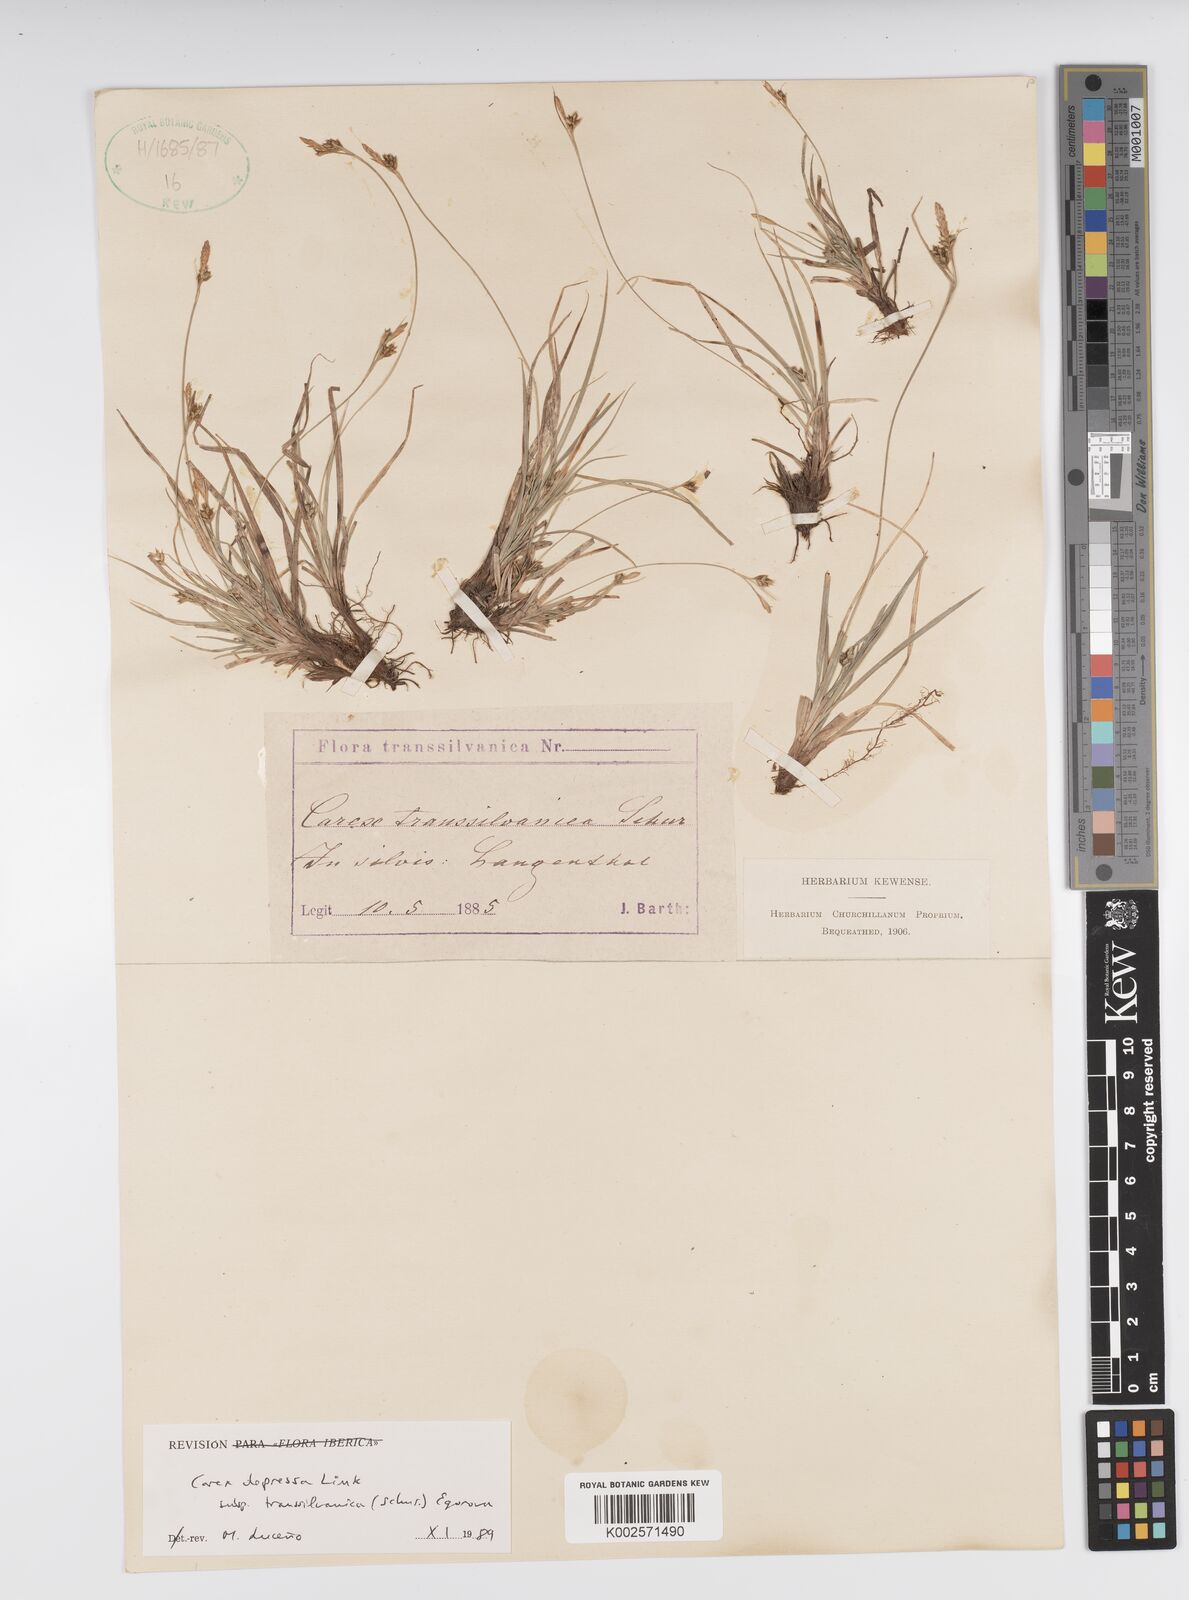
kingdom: Plantae
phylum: Tracheophyta
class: Liliopsida
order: Poales
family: Cyperaceae
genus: Carex
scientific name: Carex depressa
